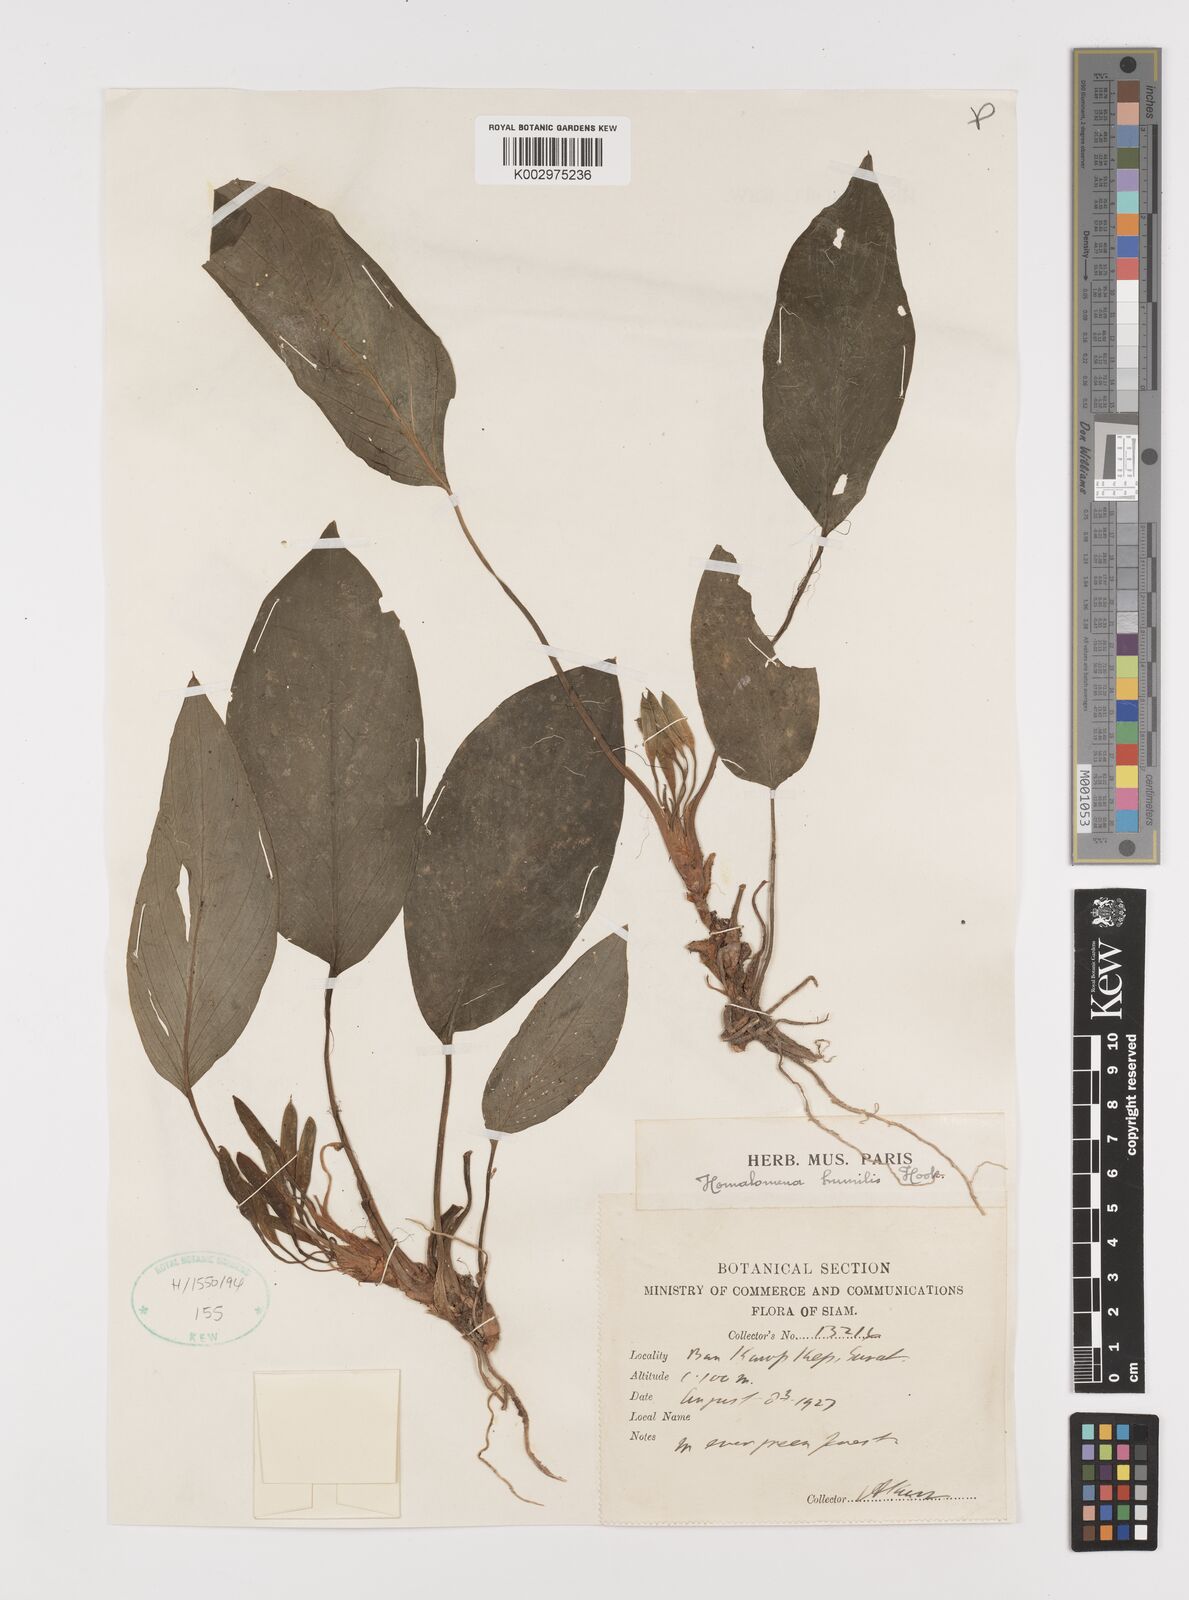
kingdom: Plantae
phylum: Tracheophyta
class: Liliopsida
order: Alismatales
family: Araceae
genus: Homalomena
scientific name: Homalomena humilis
